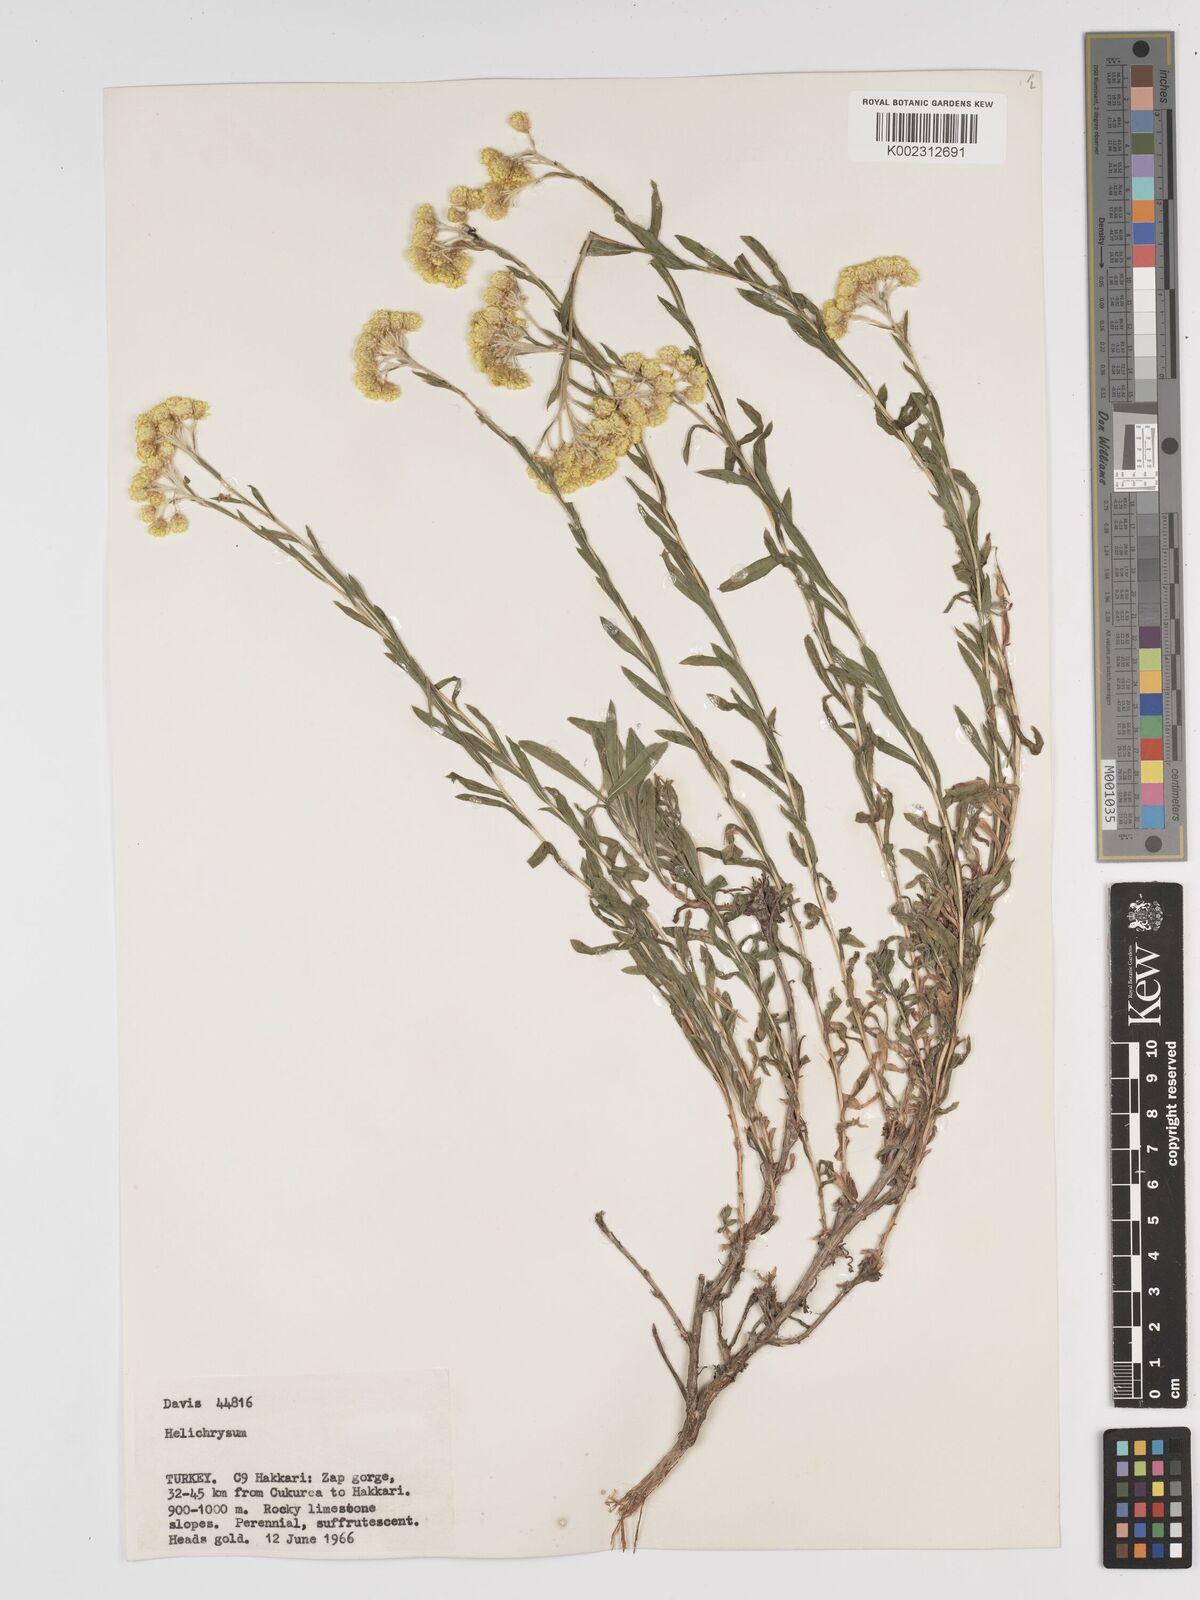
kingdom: Plantae
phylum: Tracheophyta
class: Magnoliopsida
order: Asterales
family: Asteraceae
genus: Helichrysum
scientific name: Helichrysum armenium
